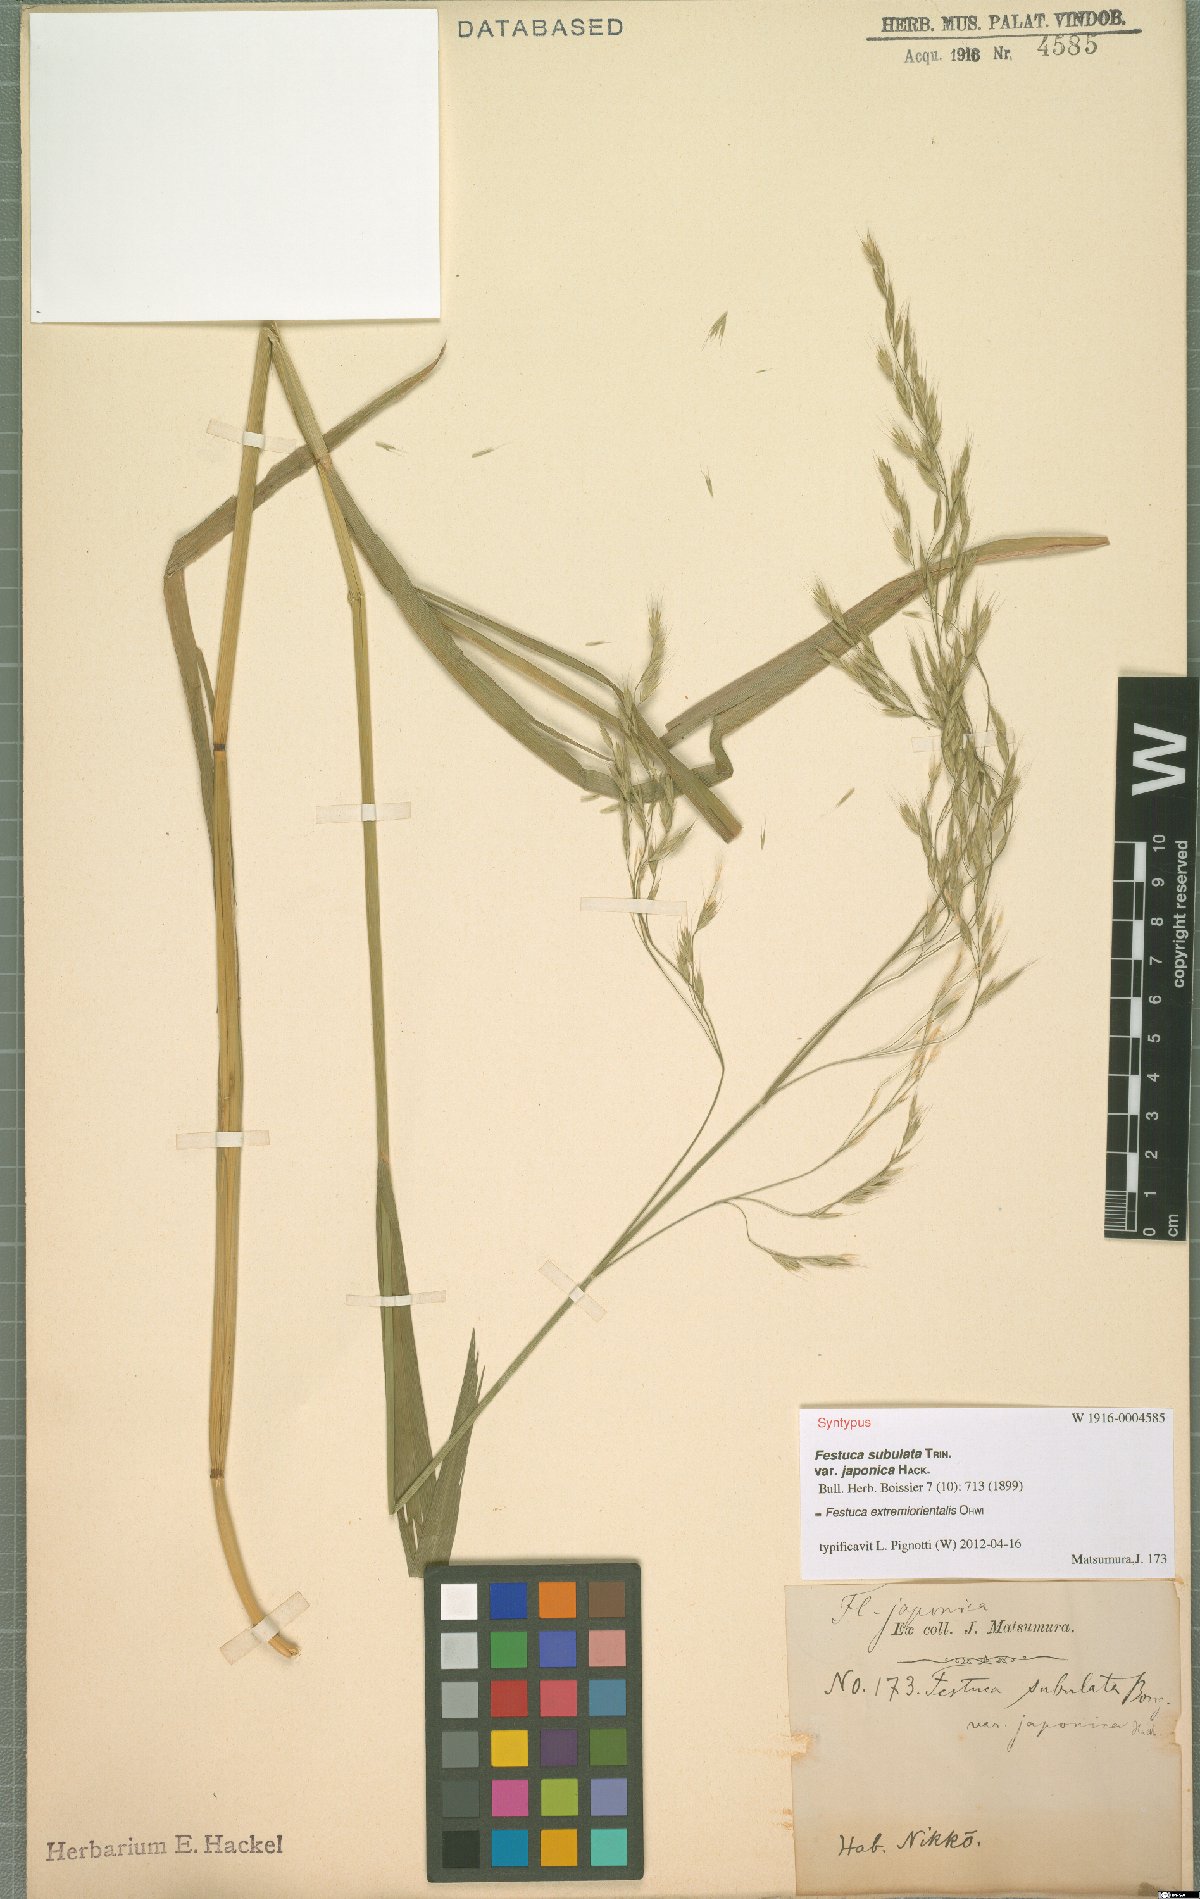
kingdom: Plantae
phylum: Tracheophyta
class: Liliopsida
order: Poales
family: Poaceae
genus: Festuca
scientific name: Festuca extremiorientalis
